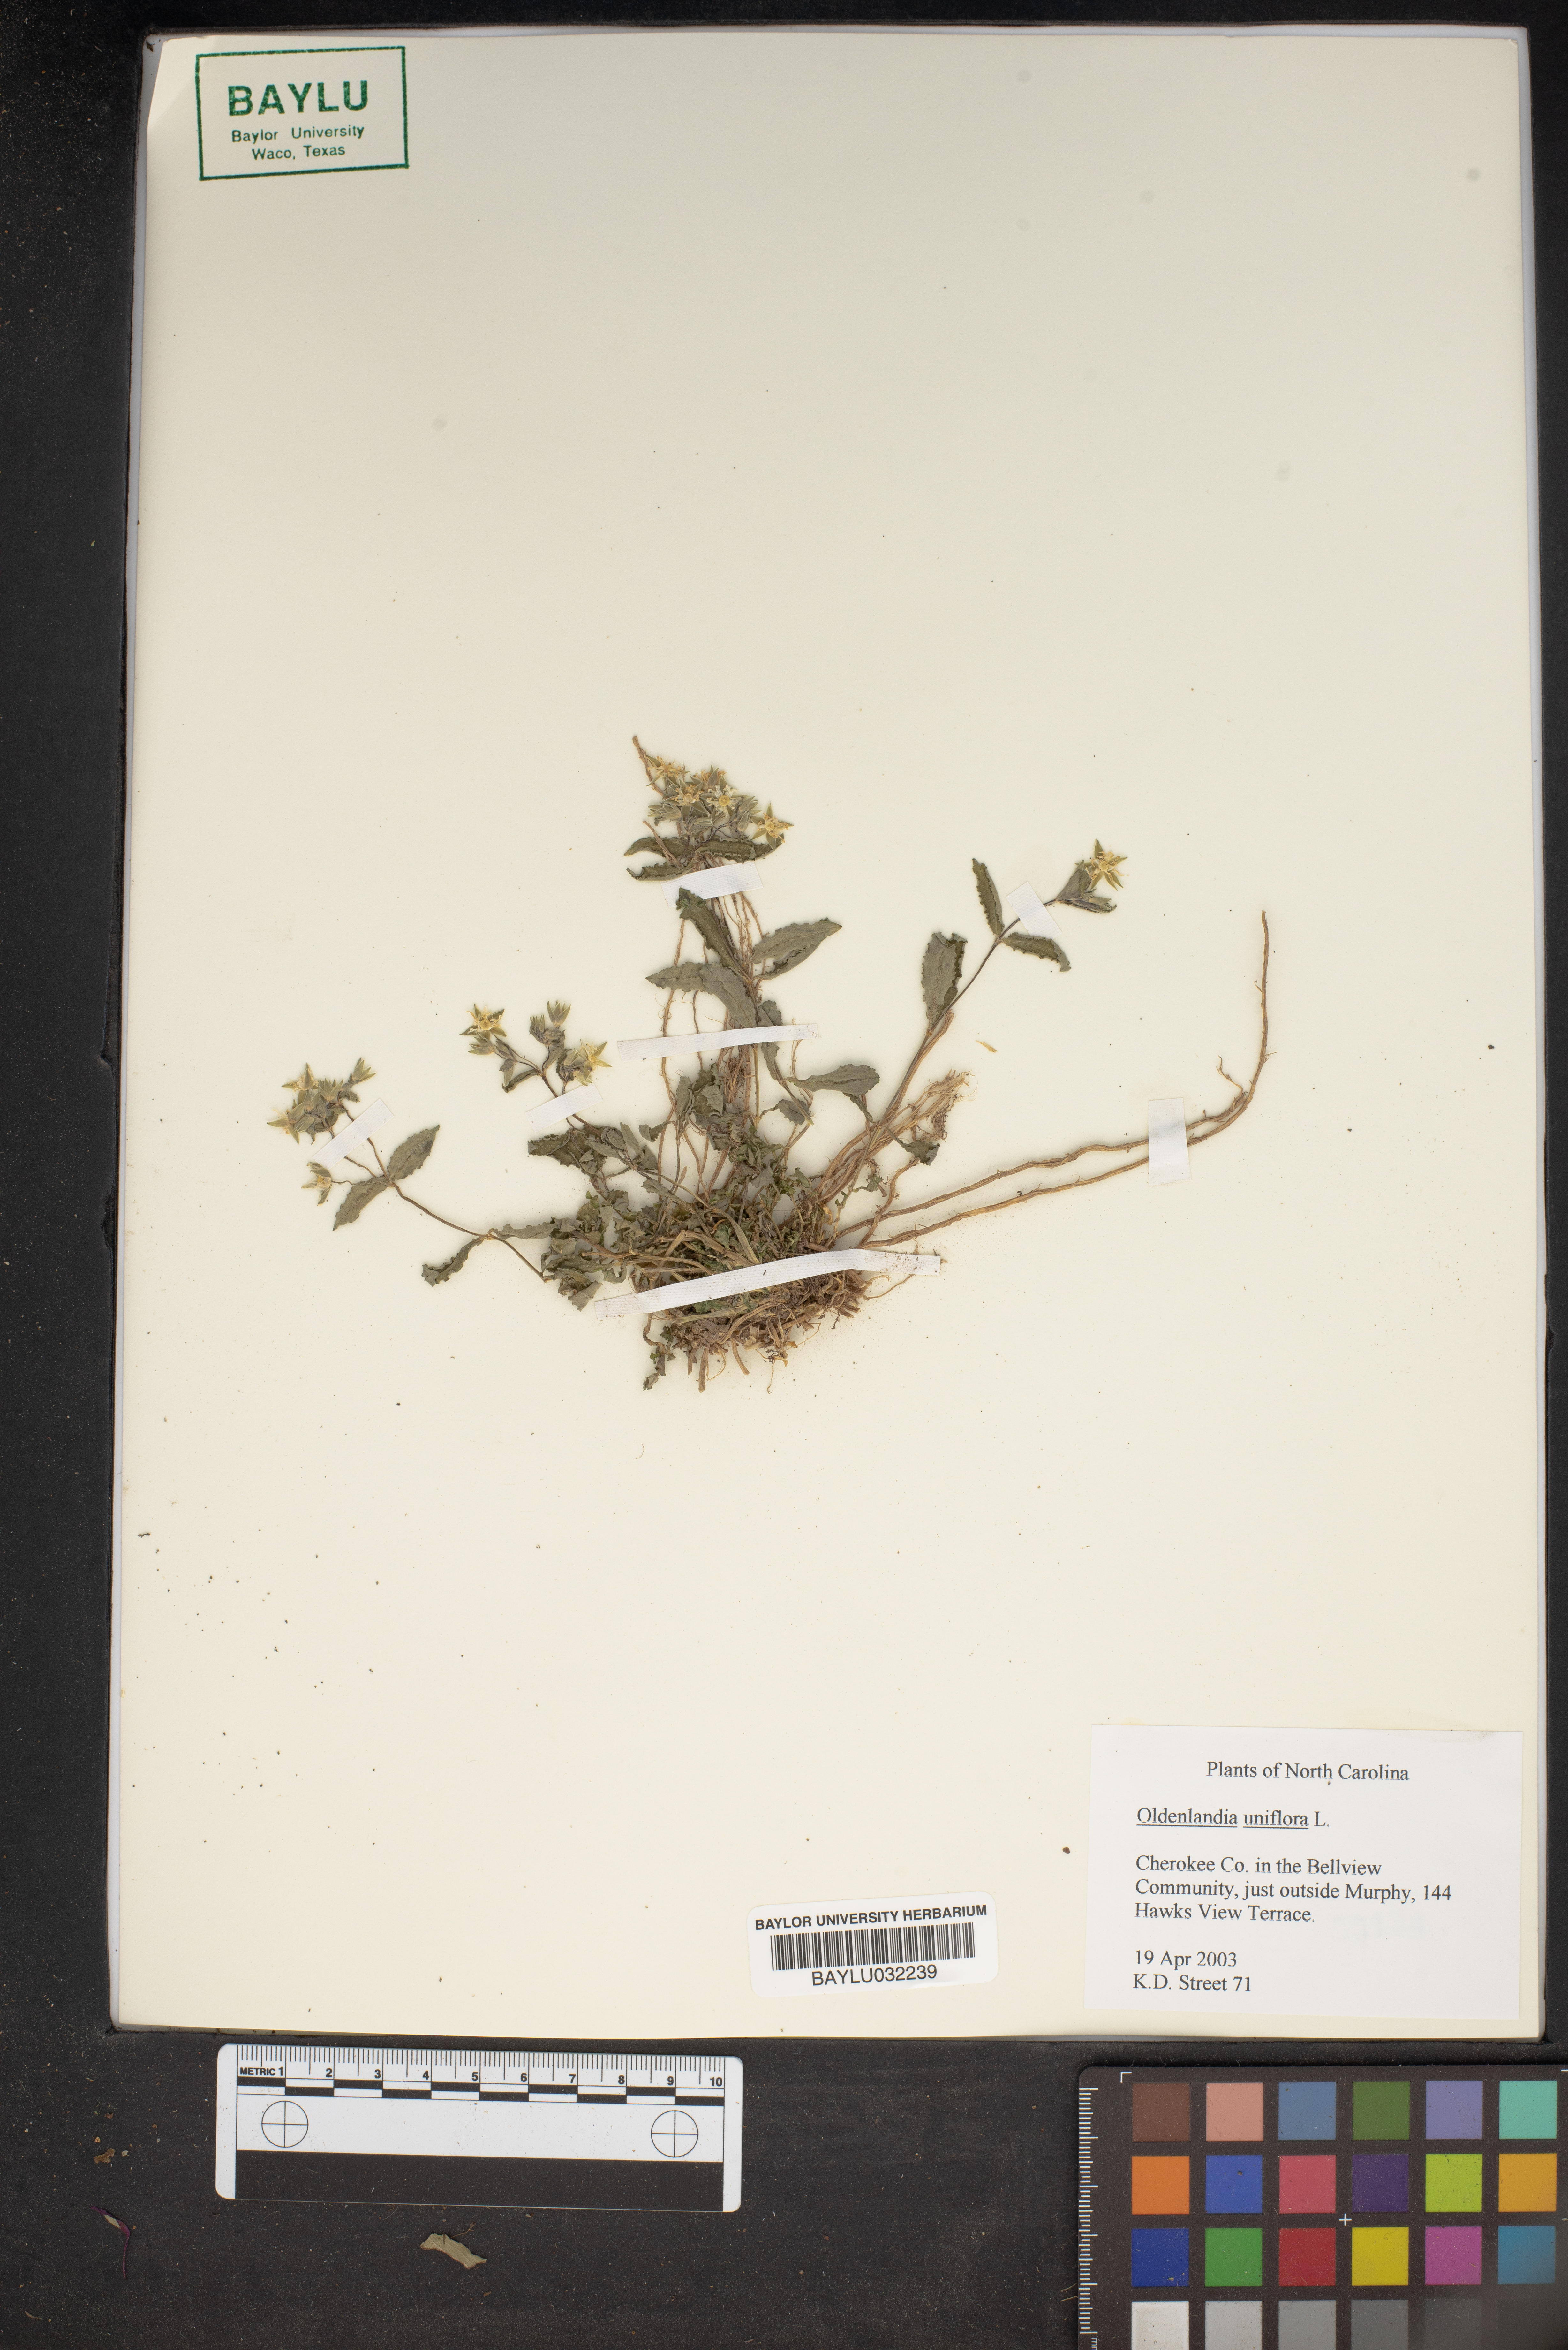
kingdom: Plantae
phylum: Tracheophyta
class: Magnoliopsida
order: Gentianales
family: Rubiaceae
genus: Edrastima
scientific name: Edrastima uniflora
